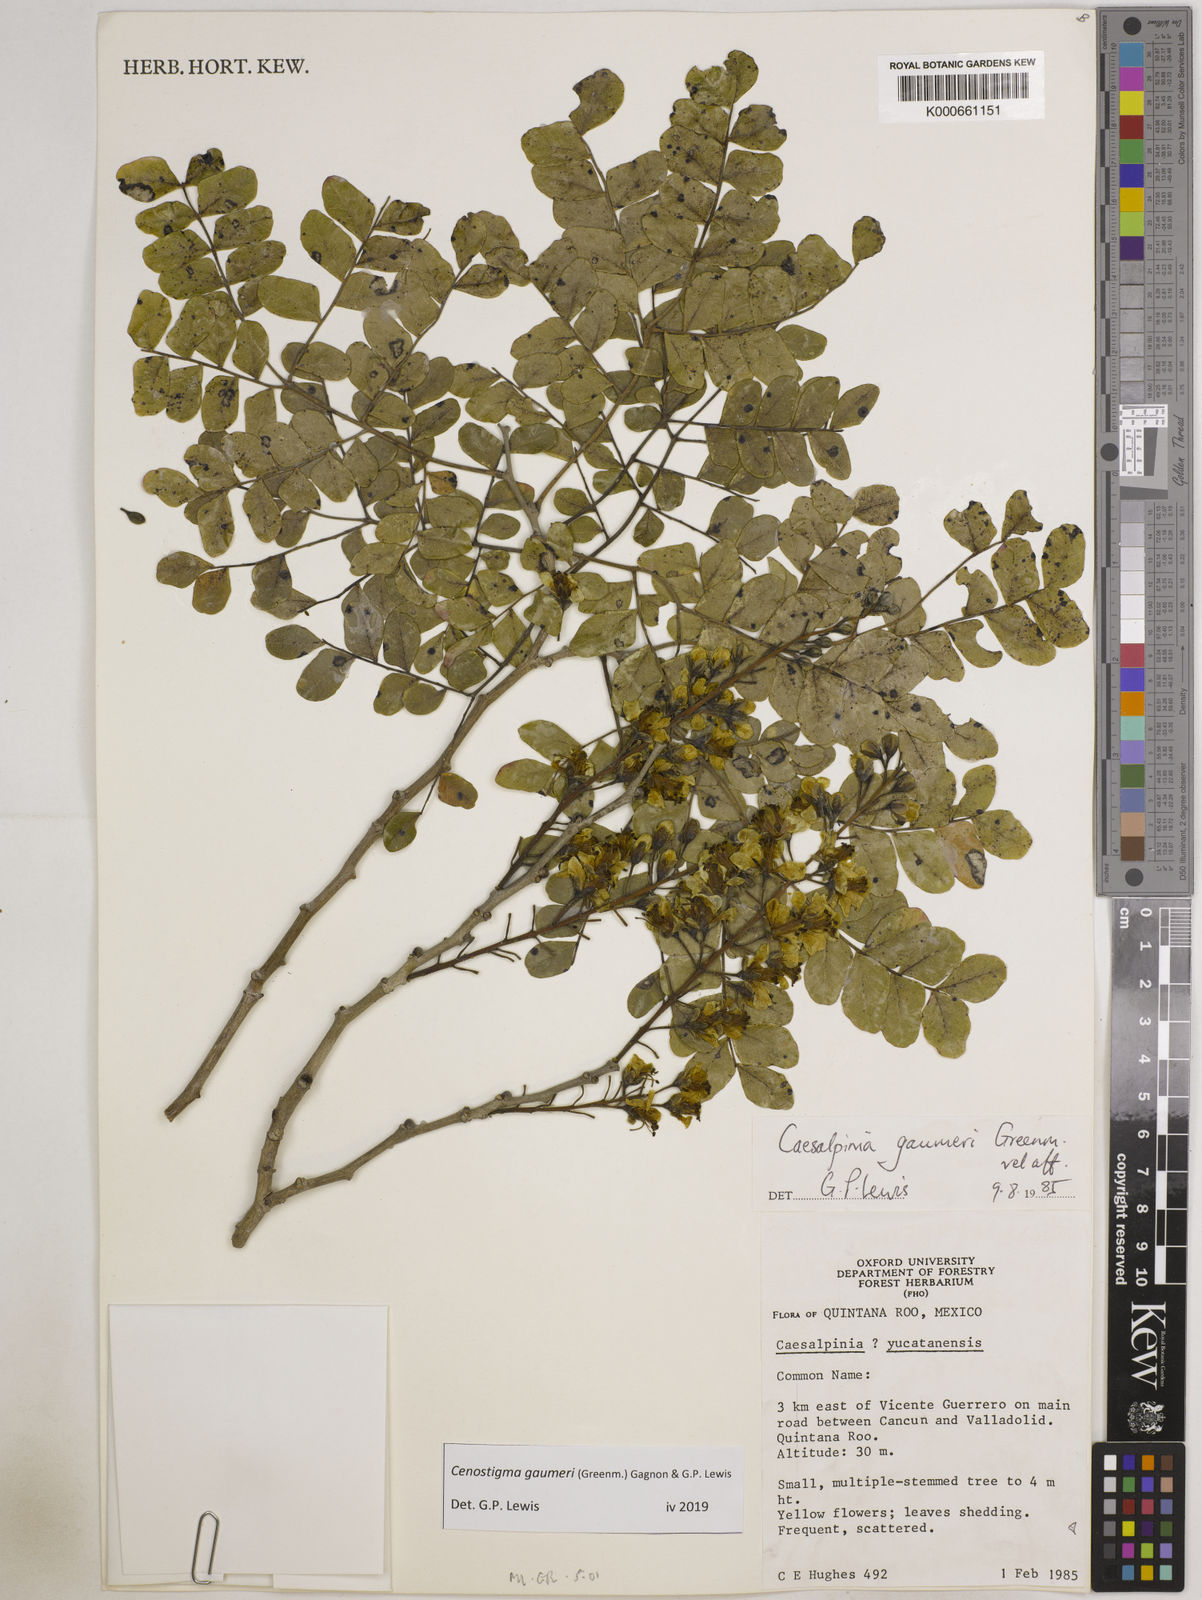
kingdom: Plantae
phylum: Tracheophyta
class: Magnoliopsida
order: Fabales
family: Fabaceae
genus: Cenostigma
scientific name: Cenostigma gaumeri
